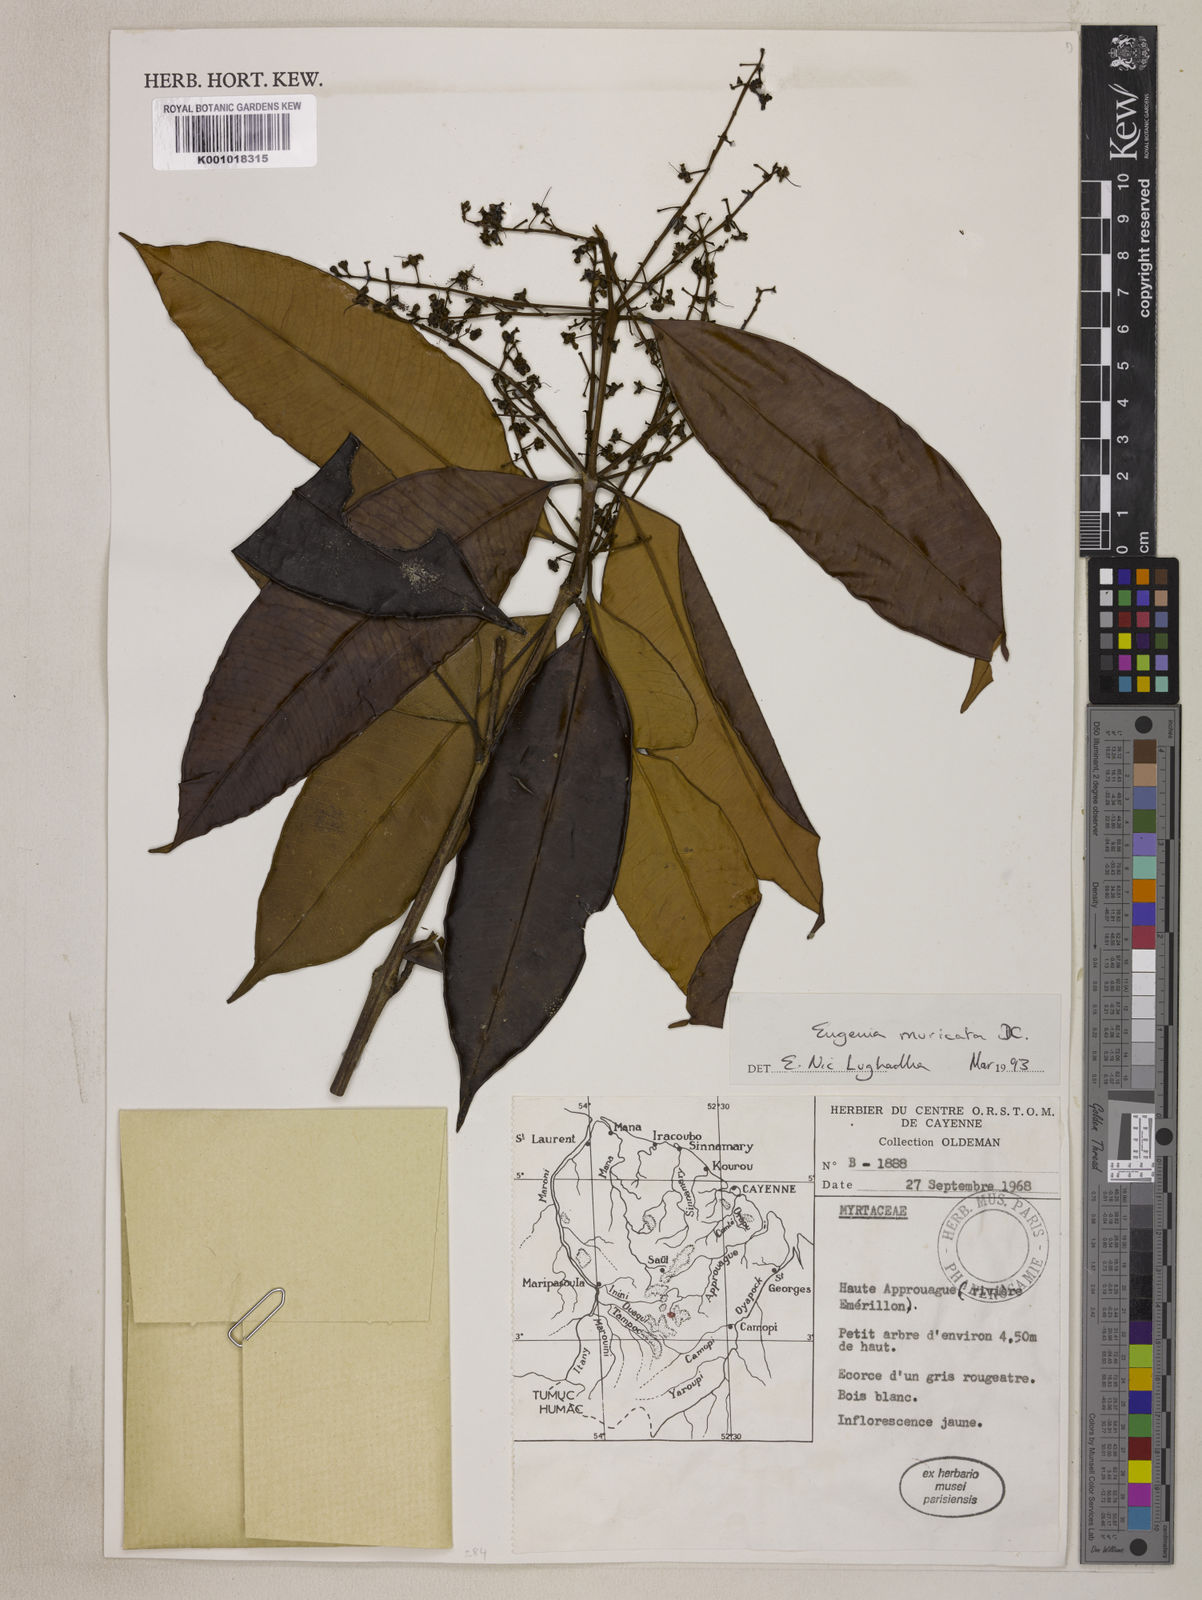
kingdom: Plantae
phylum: Tracheophyta
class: Magnoliopsida
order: Myrtales
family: Myrtaceae
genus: Eugenia
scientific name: Eugenia muricata
